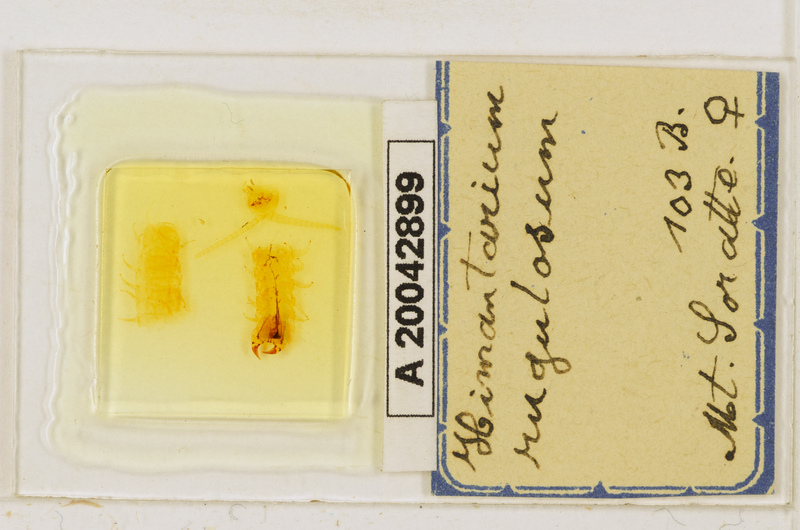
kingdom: Animalia
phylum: Arthropoda
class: Chilopoda
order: Geophilomorpha
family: Himantariidae
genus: Himantarium
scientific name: Himantarium gabrielis
